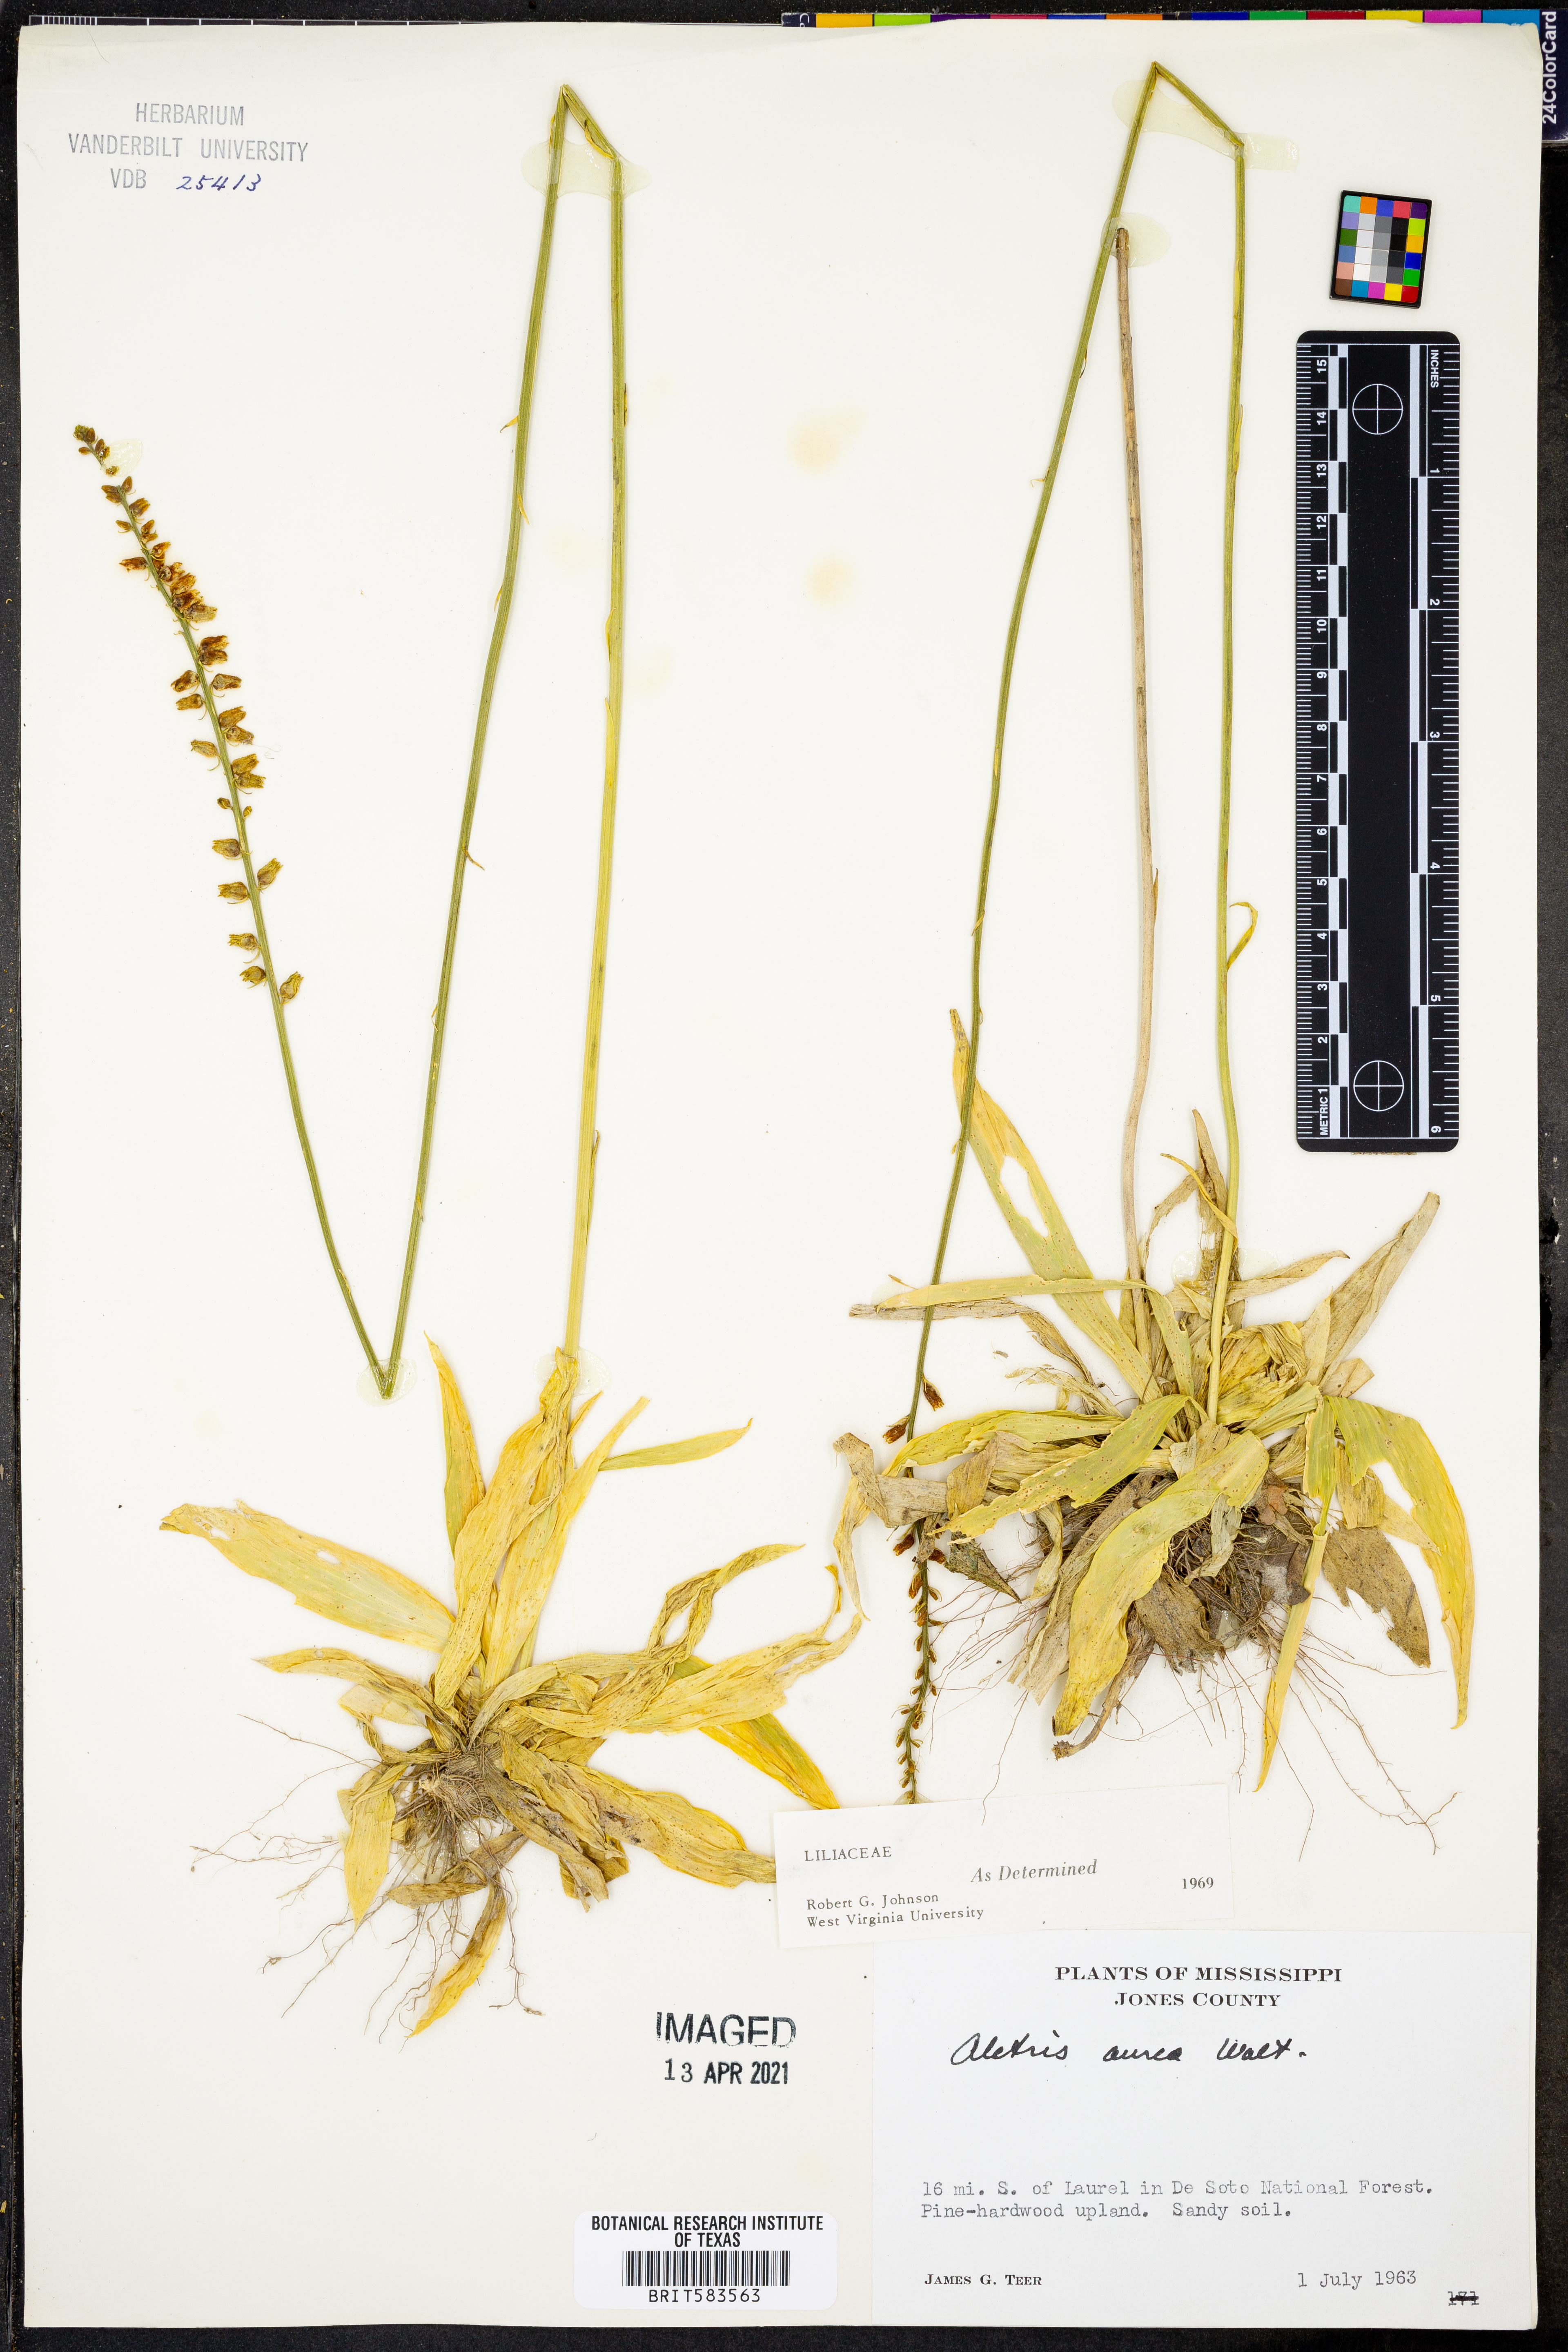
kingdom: Plantae
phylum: Tracheophyta
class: Liliopsida
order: Dioscoreales
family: Nartheciaceae
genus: Aletris
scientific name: Aletris aurea
